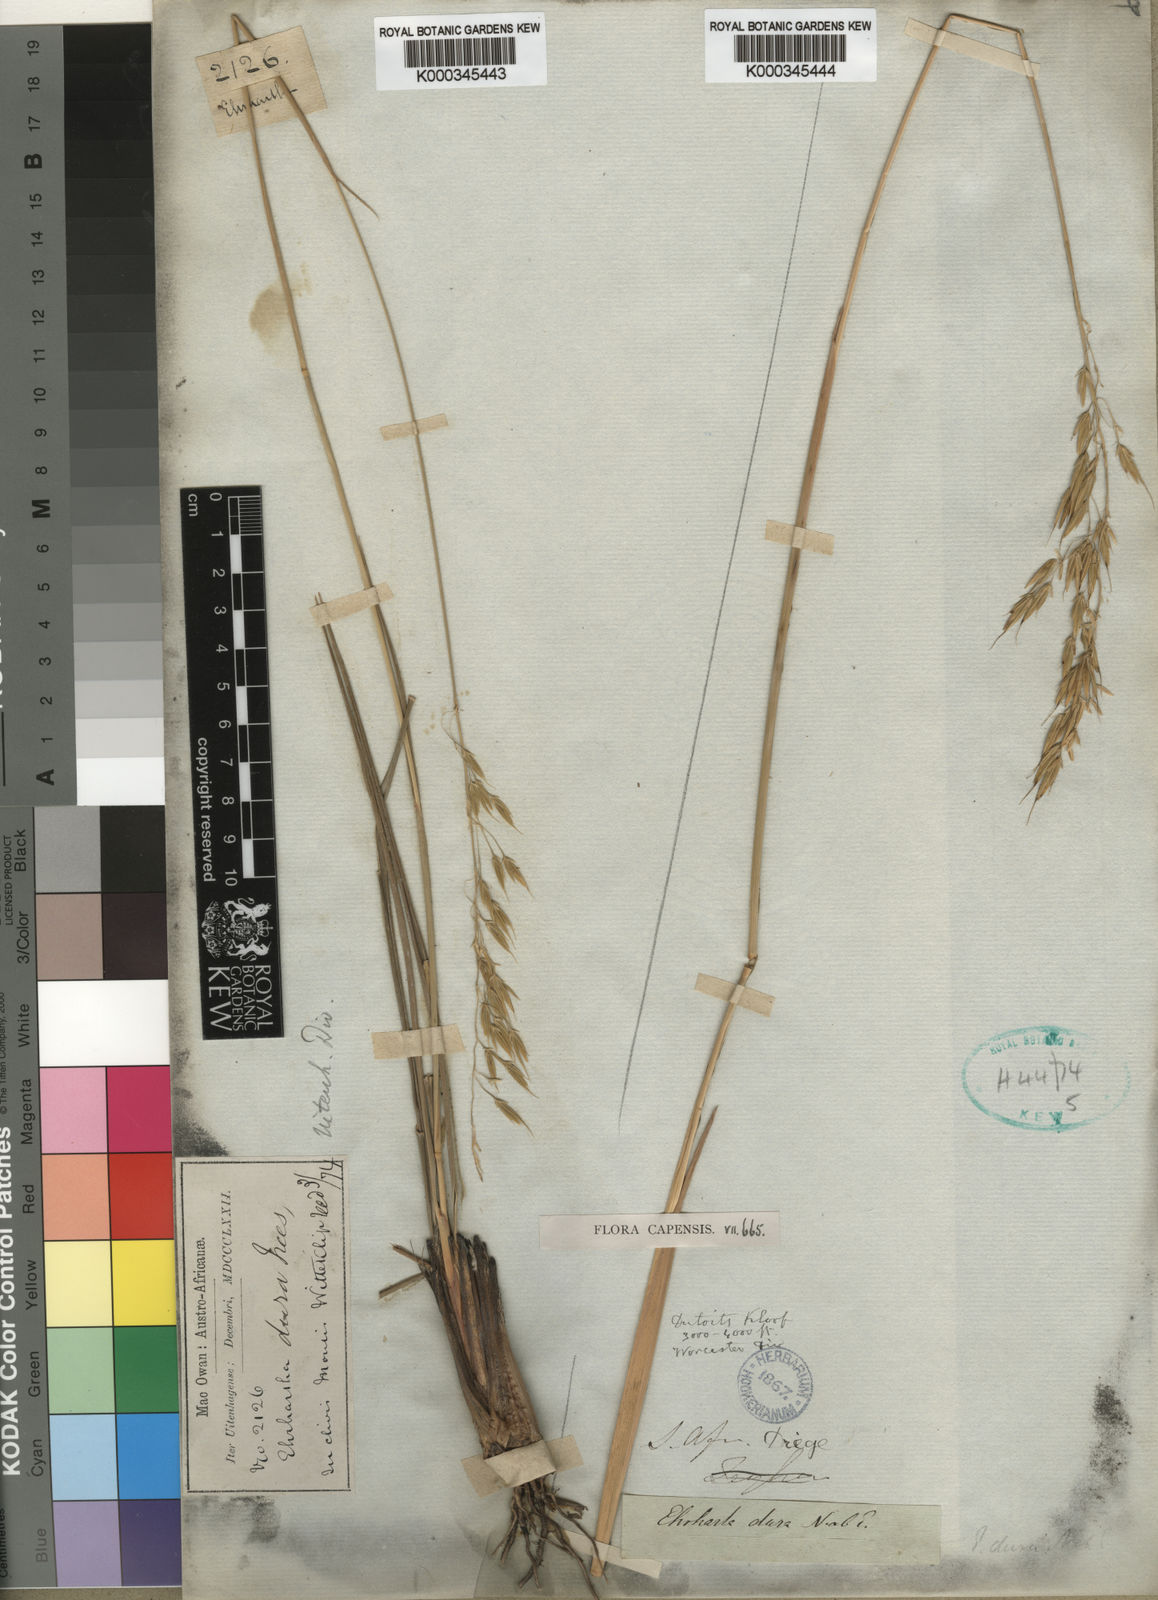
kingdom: Plantae
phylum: Tracheophyta
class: Liliopsida
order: Poales
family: Poaceae
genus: Ehrharta
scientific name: Ehrharta
